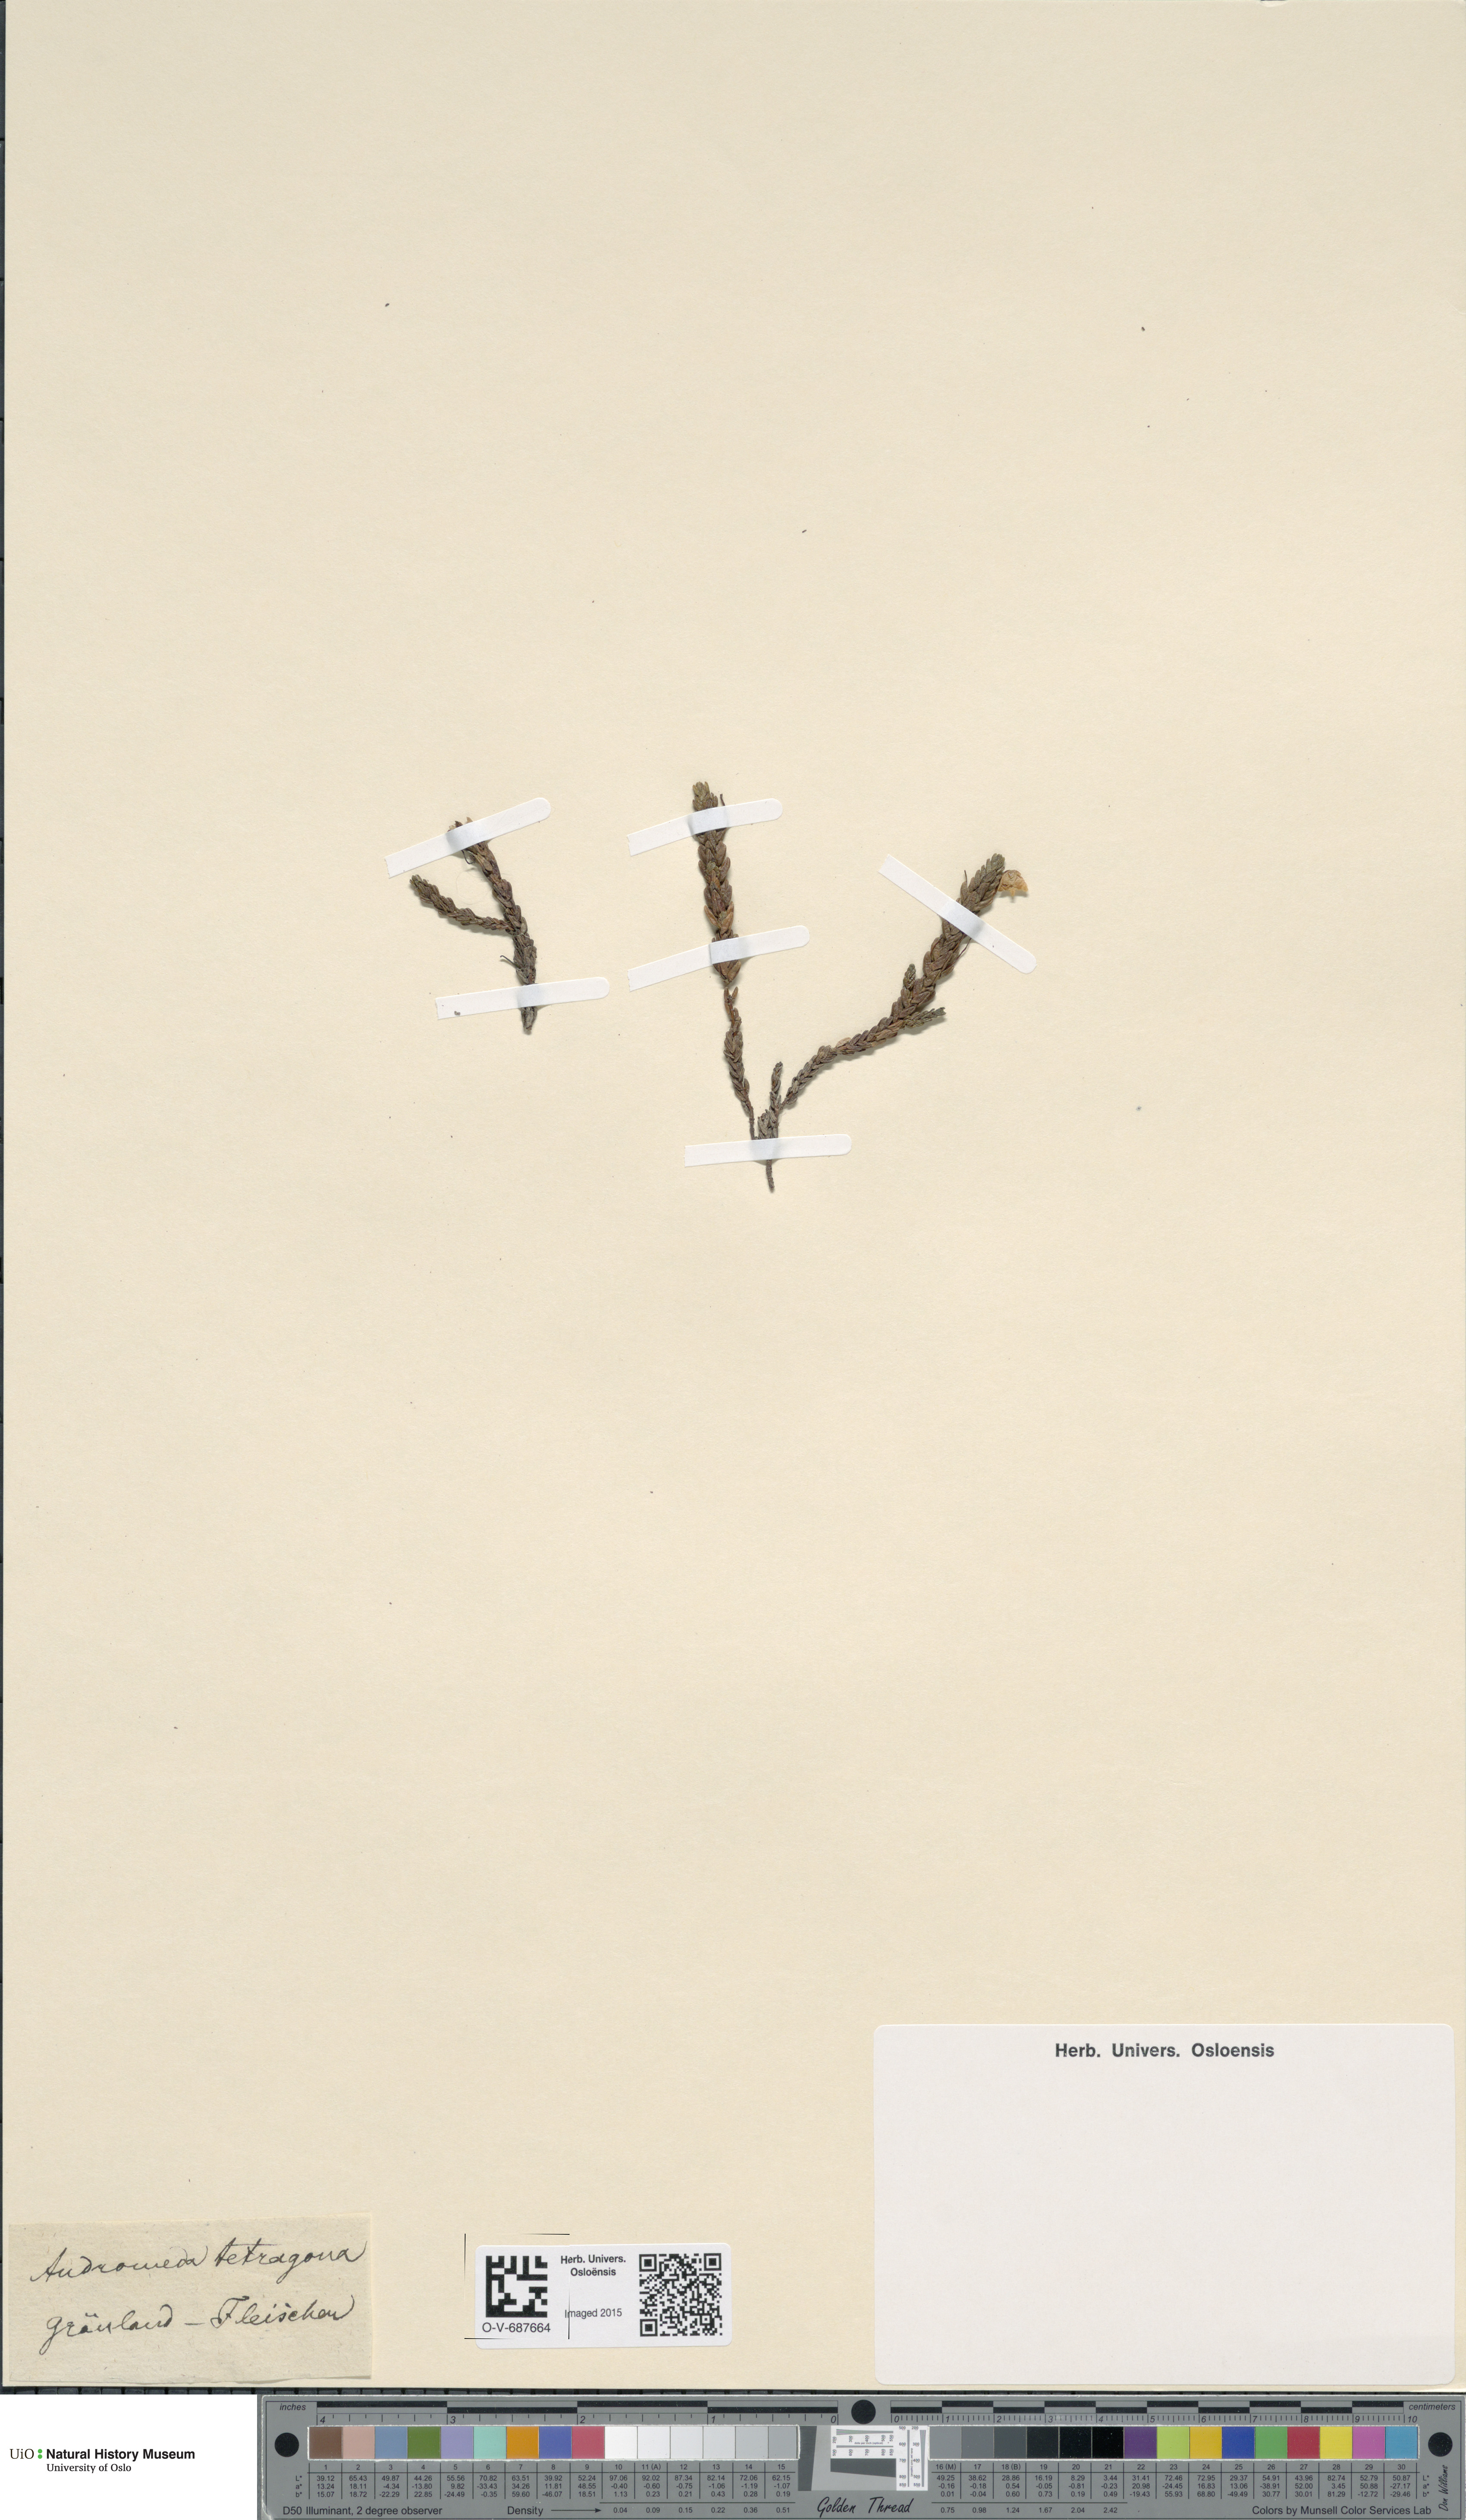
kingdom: Plantae
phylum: Tracheophyta
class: Magnoliopsida
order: Ericales
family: Ericaceae
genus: Cassiope
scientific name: Cassiope tetragona
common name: Arctic bell heather
